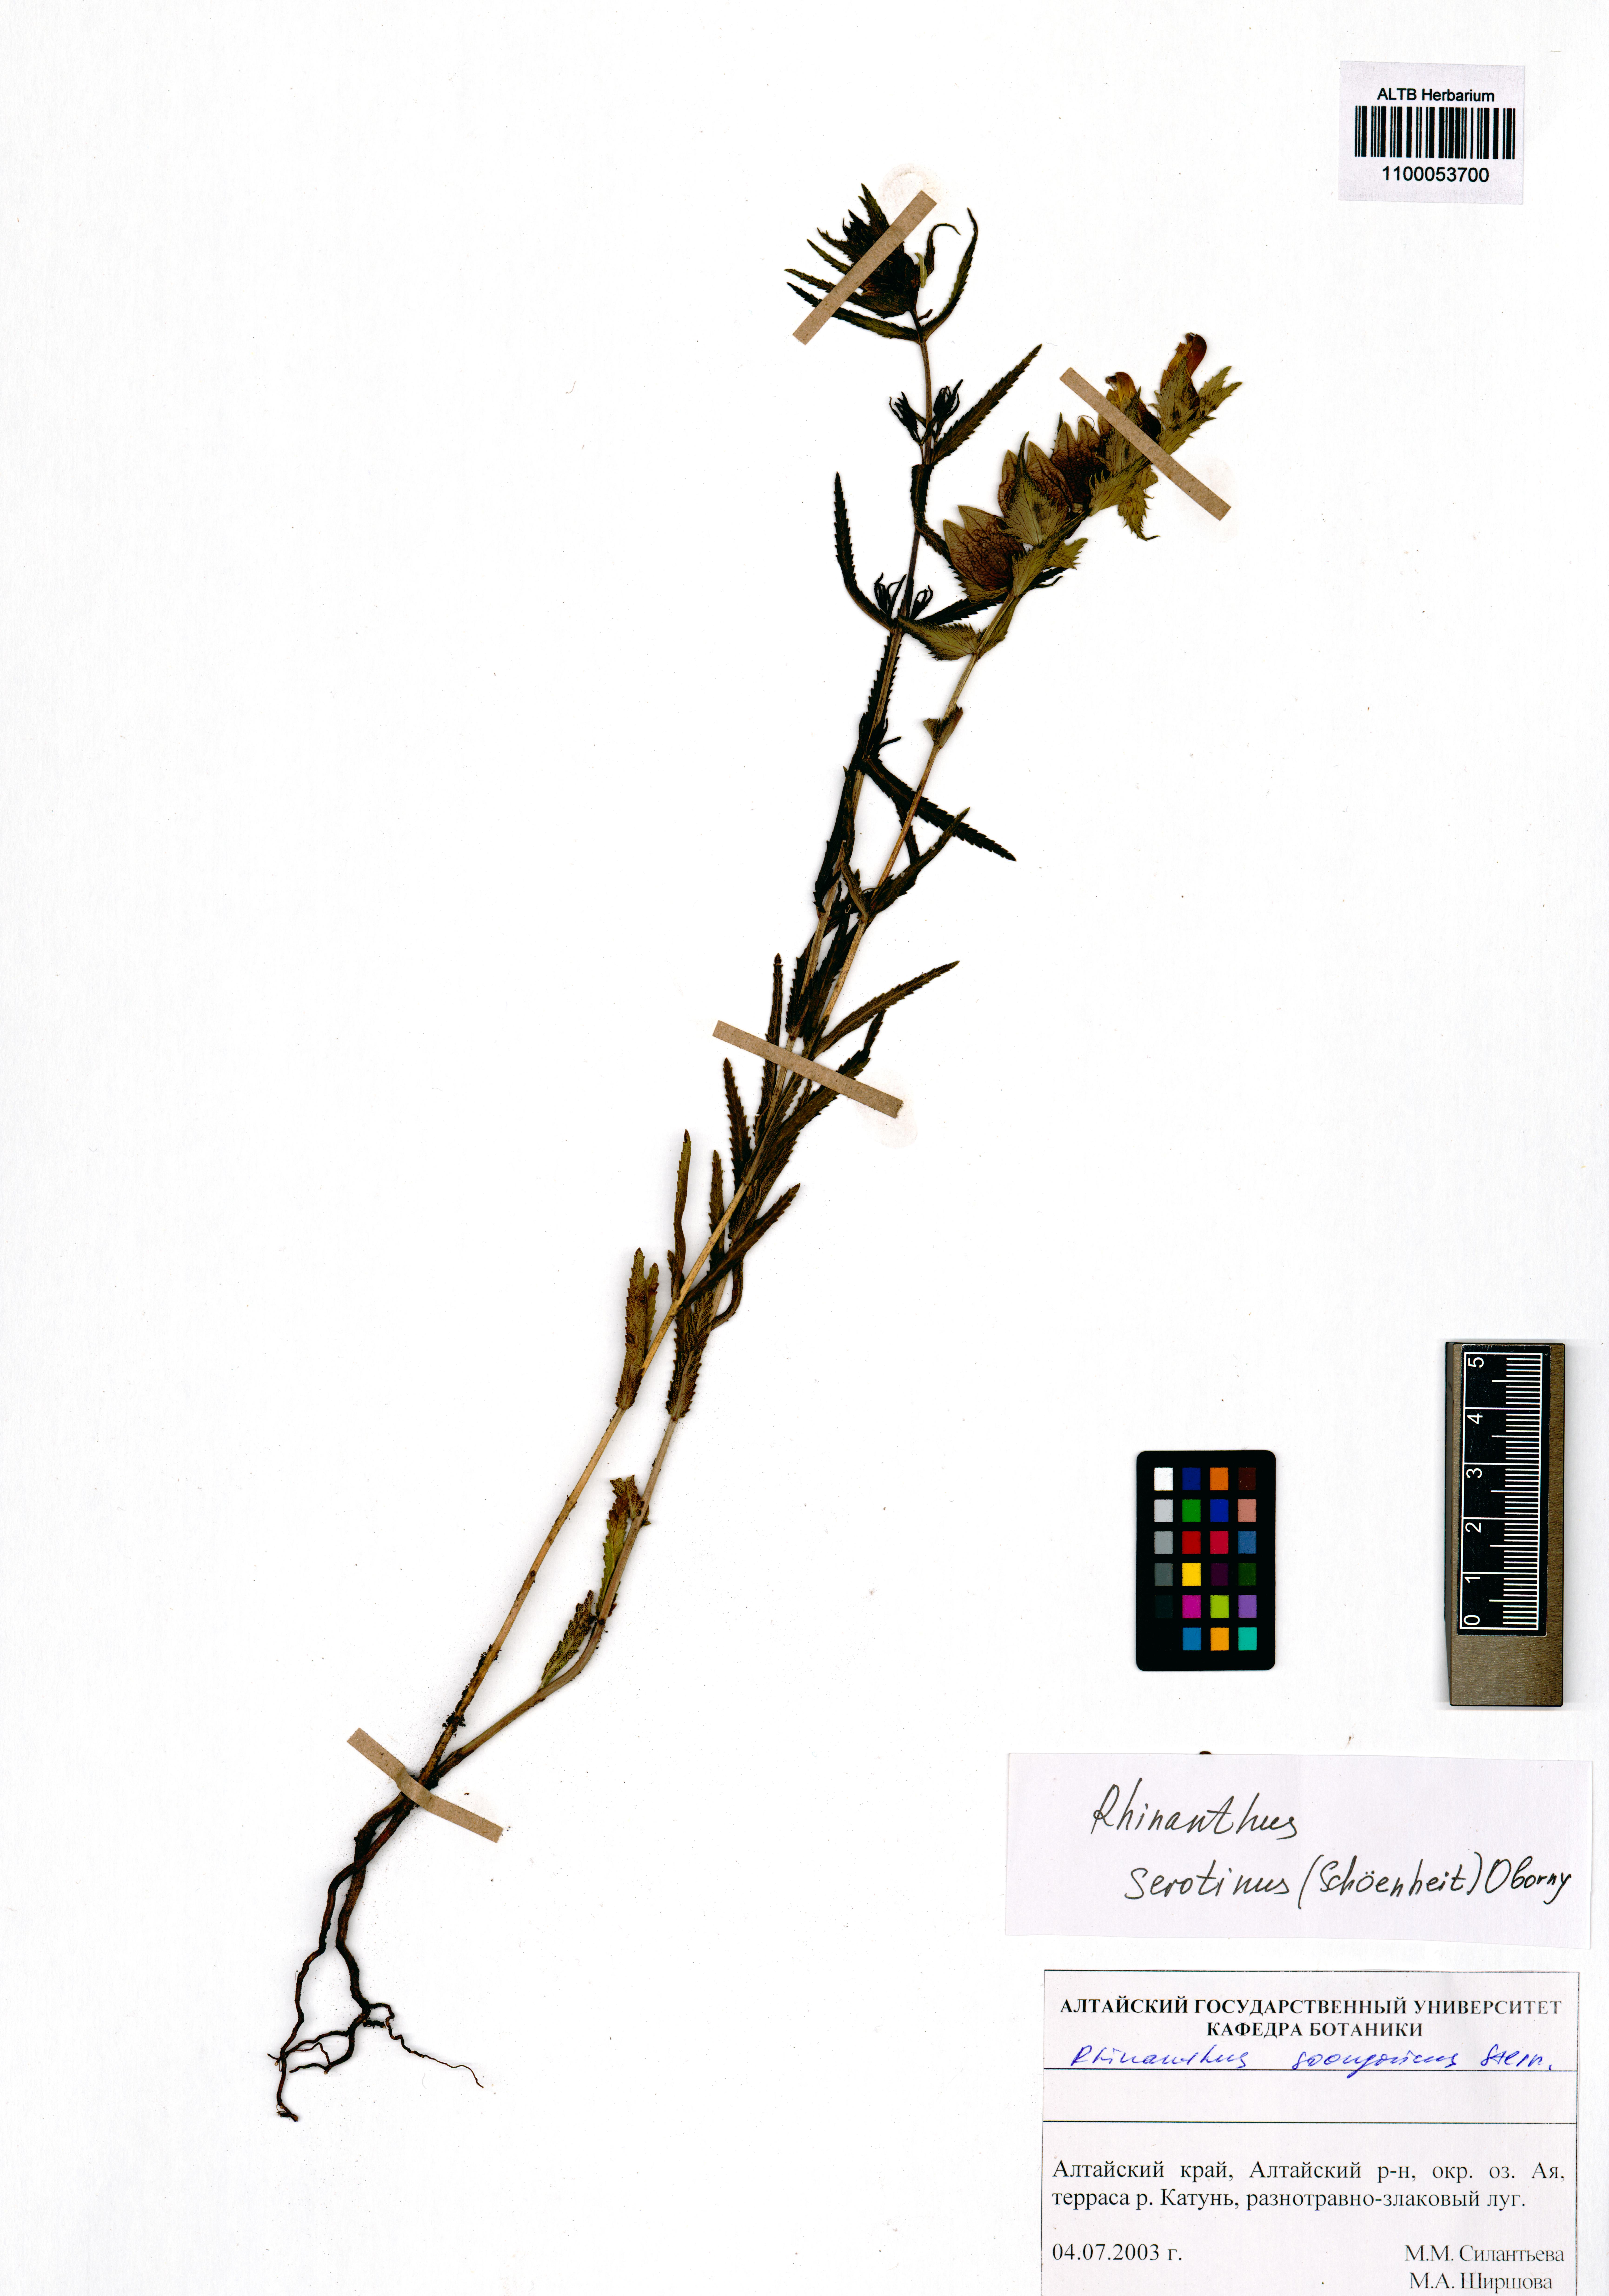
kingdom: Plantae
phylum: Tracheophyta
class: Magnoliopsida
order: Lamiales
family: Orobanchaceae
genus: Rhinanthus
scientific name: Rhinanthus serotinus
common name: Late-flowering yellow rattle
